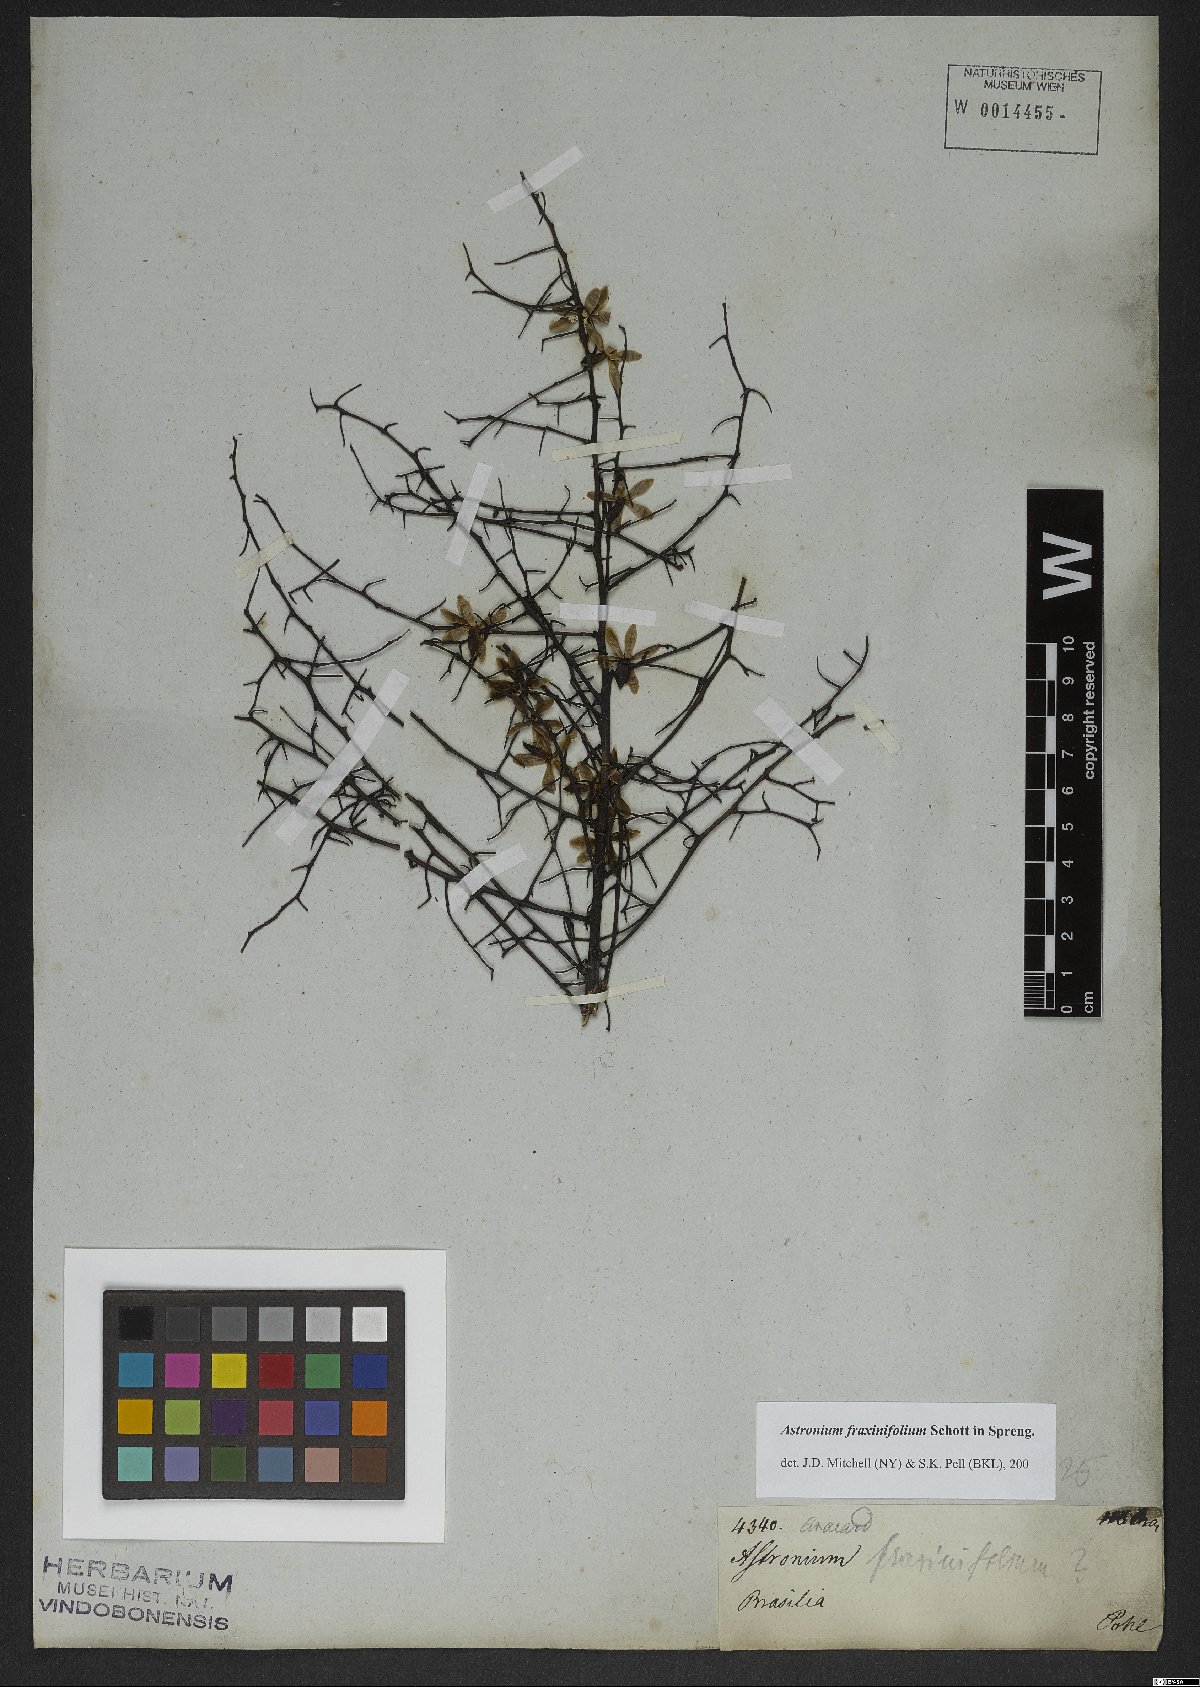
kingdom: Plantae
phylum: Tracheophyta
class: Magnoliopsida
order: Sapindales
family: Anacardiaceae
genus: Astronium
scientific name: Astronium fraxinifolium
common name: Tigerwood
